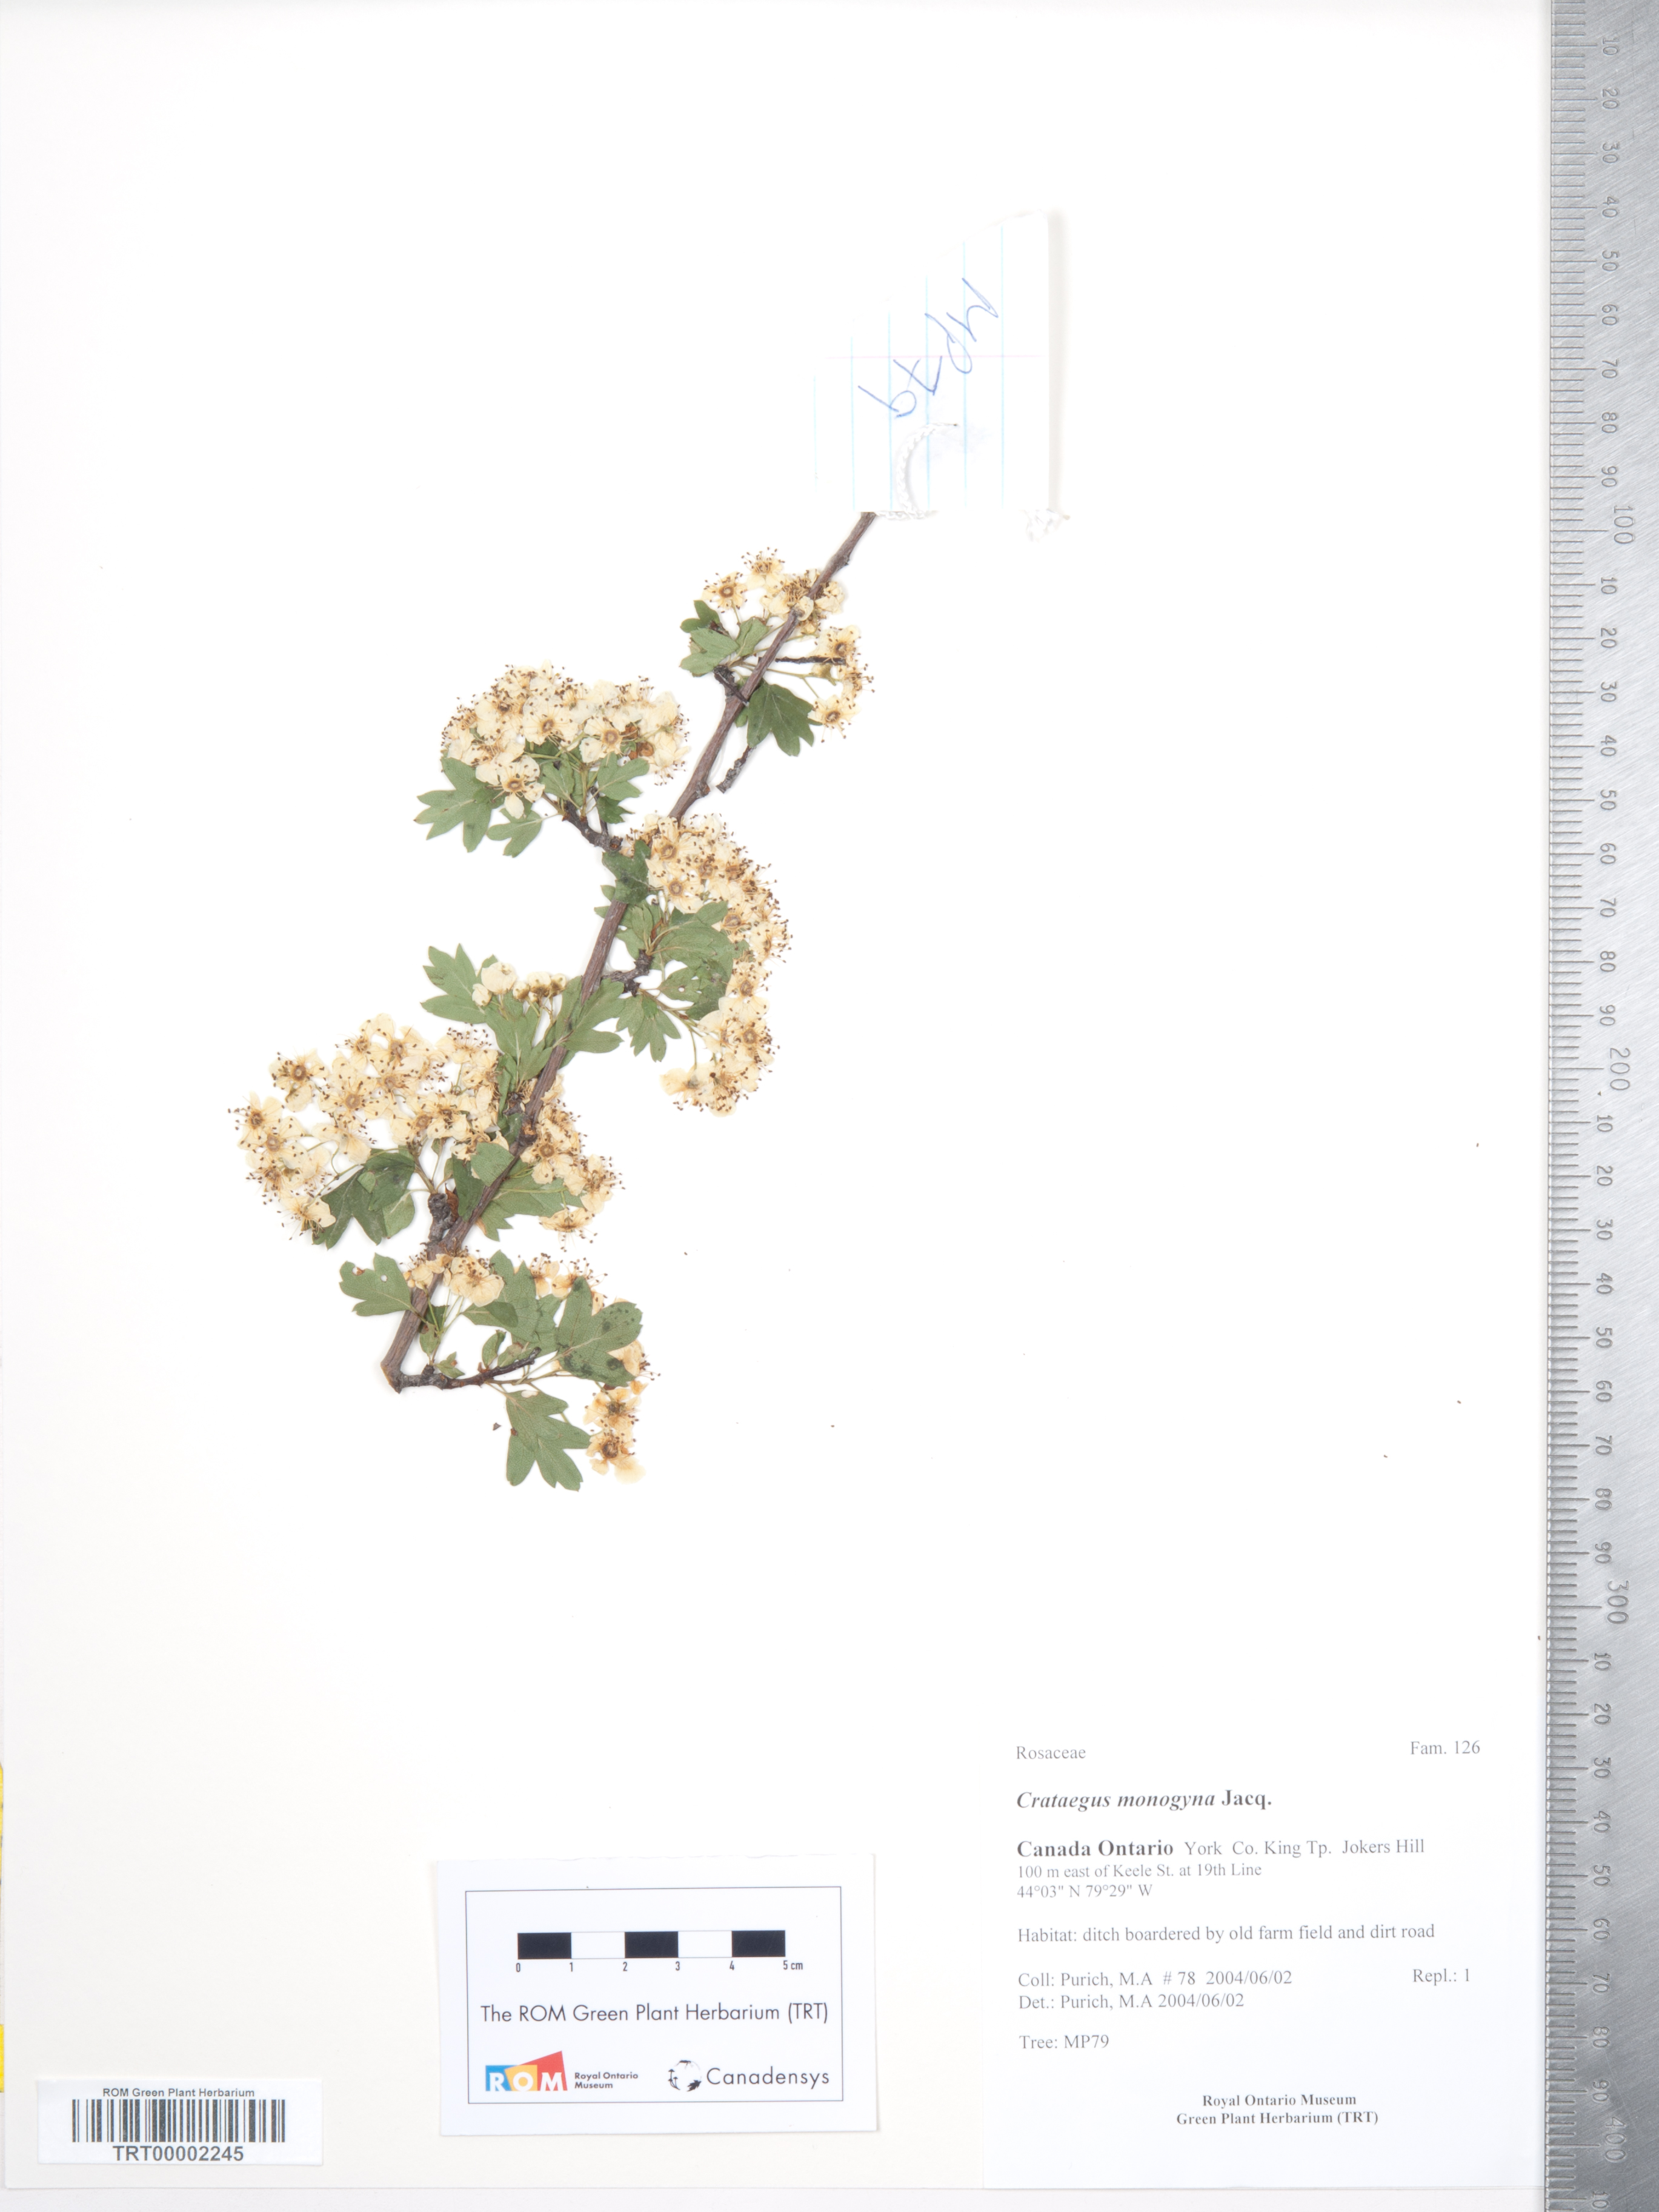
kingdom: Plantae
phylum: Tracheophyta
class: Magnoliopsida
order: Rosales
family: Rosaceae
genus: Crataegus
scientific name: Crataegus monogyna
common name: Hawthorn
